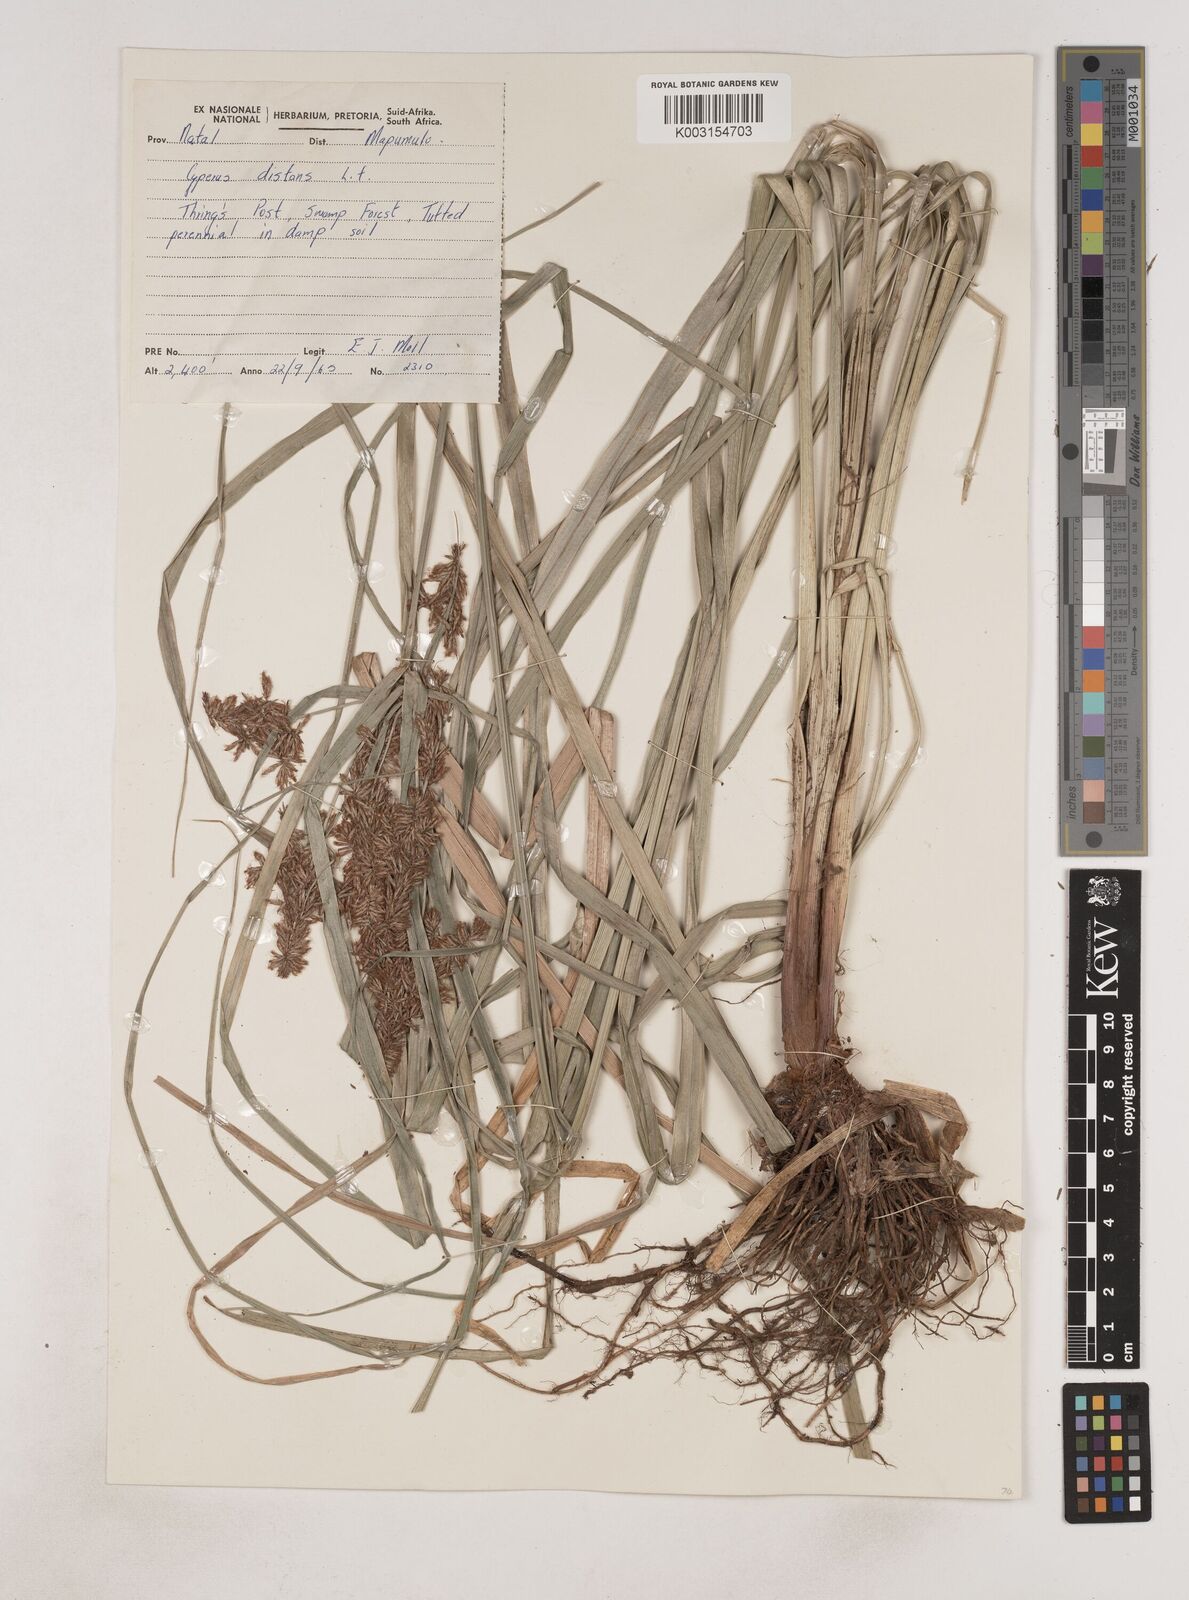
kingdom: Plantae
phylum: Tracheophyta
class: Liliopsida
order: Poales
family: Cyperaceae
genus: Cyperus
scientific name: Cyperus
